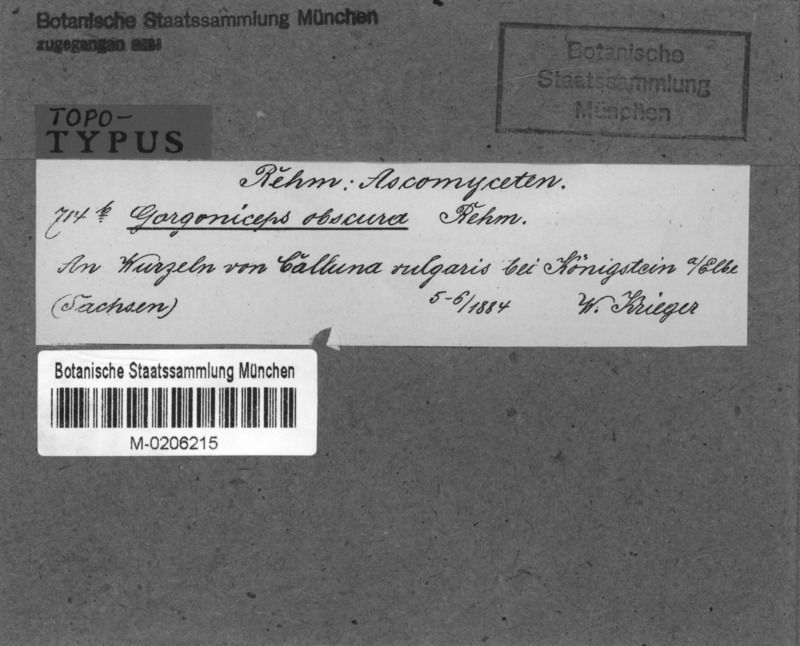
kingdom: Fungi
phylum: Ascomycota
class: Leotiomycetes
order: Helotiales
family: Mollisiaceae
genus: Mollisia
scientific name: Mollisia obscura
